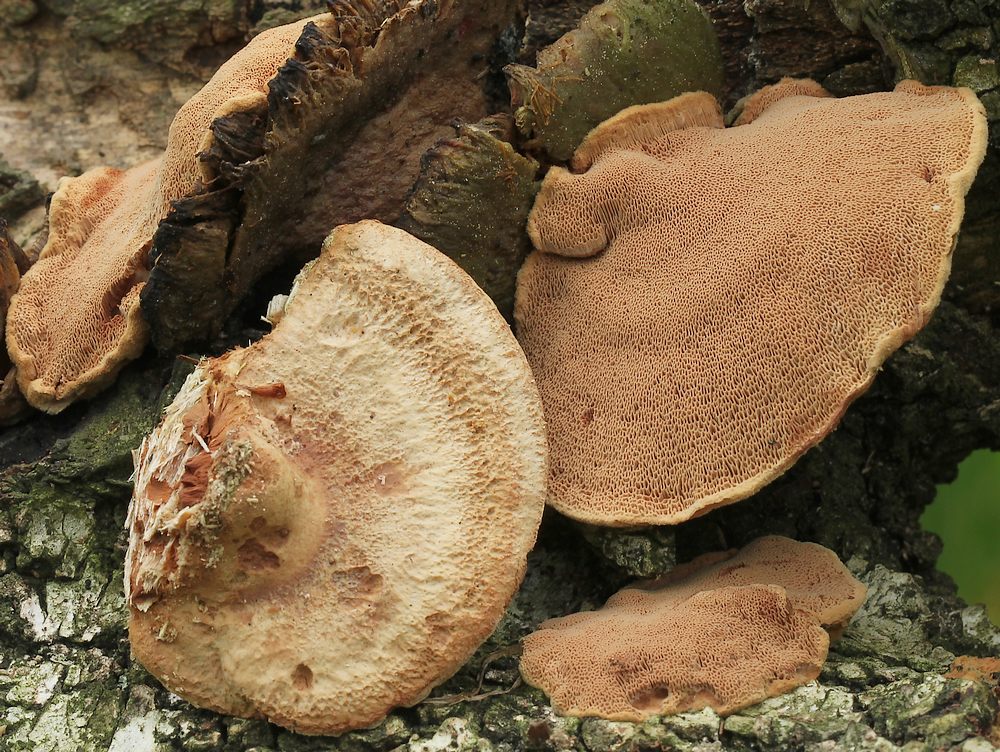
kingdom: Fungi
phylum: Basidiomycota
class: Agaricomycetes
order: Polyporales
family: Phanerochaetaceae
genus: Hapalopilus
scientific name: Hapalopilus rutilans
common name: rødlig okkerporesvamp
